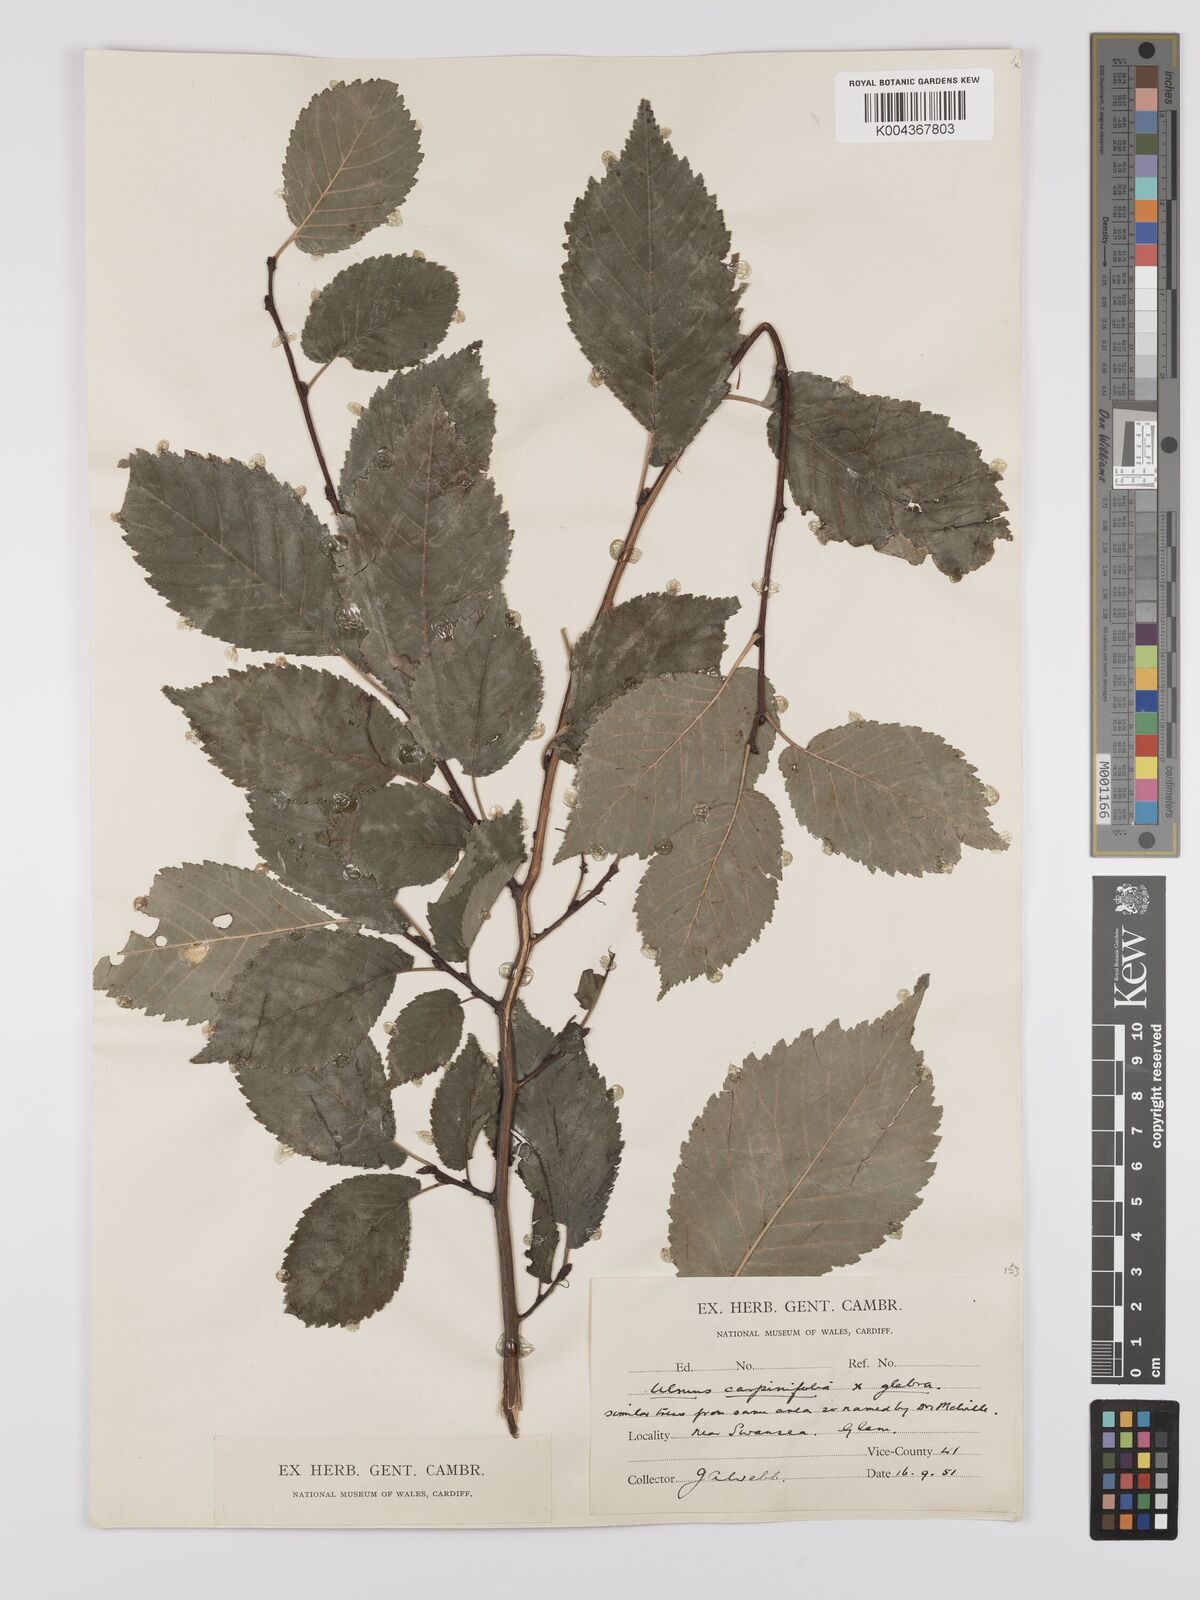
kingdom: Plantae
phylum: Tracheophyta
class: Magnoliopsida
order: Rosales
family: Ulmaceae
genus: Ulmus
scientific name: Ulmus minor
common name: Small-leaved elm
